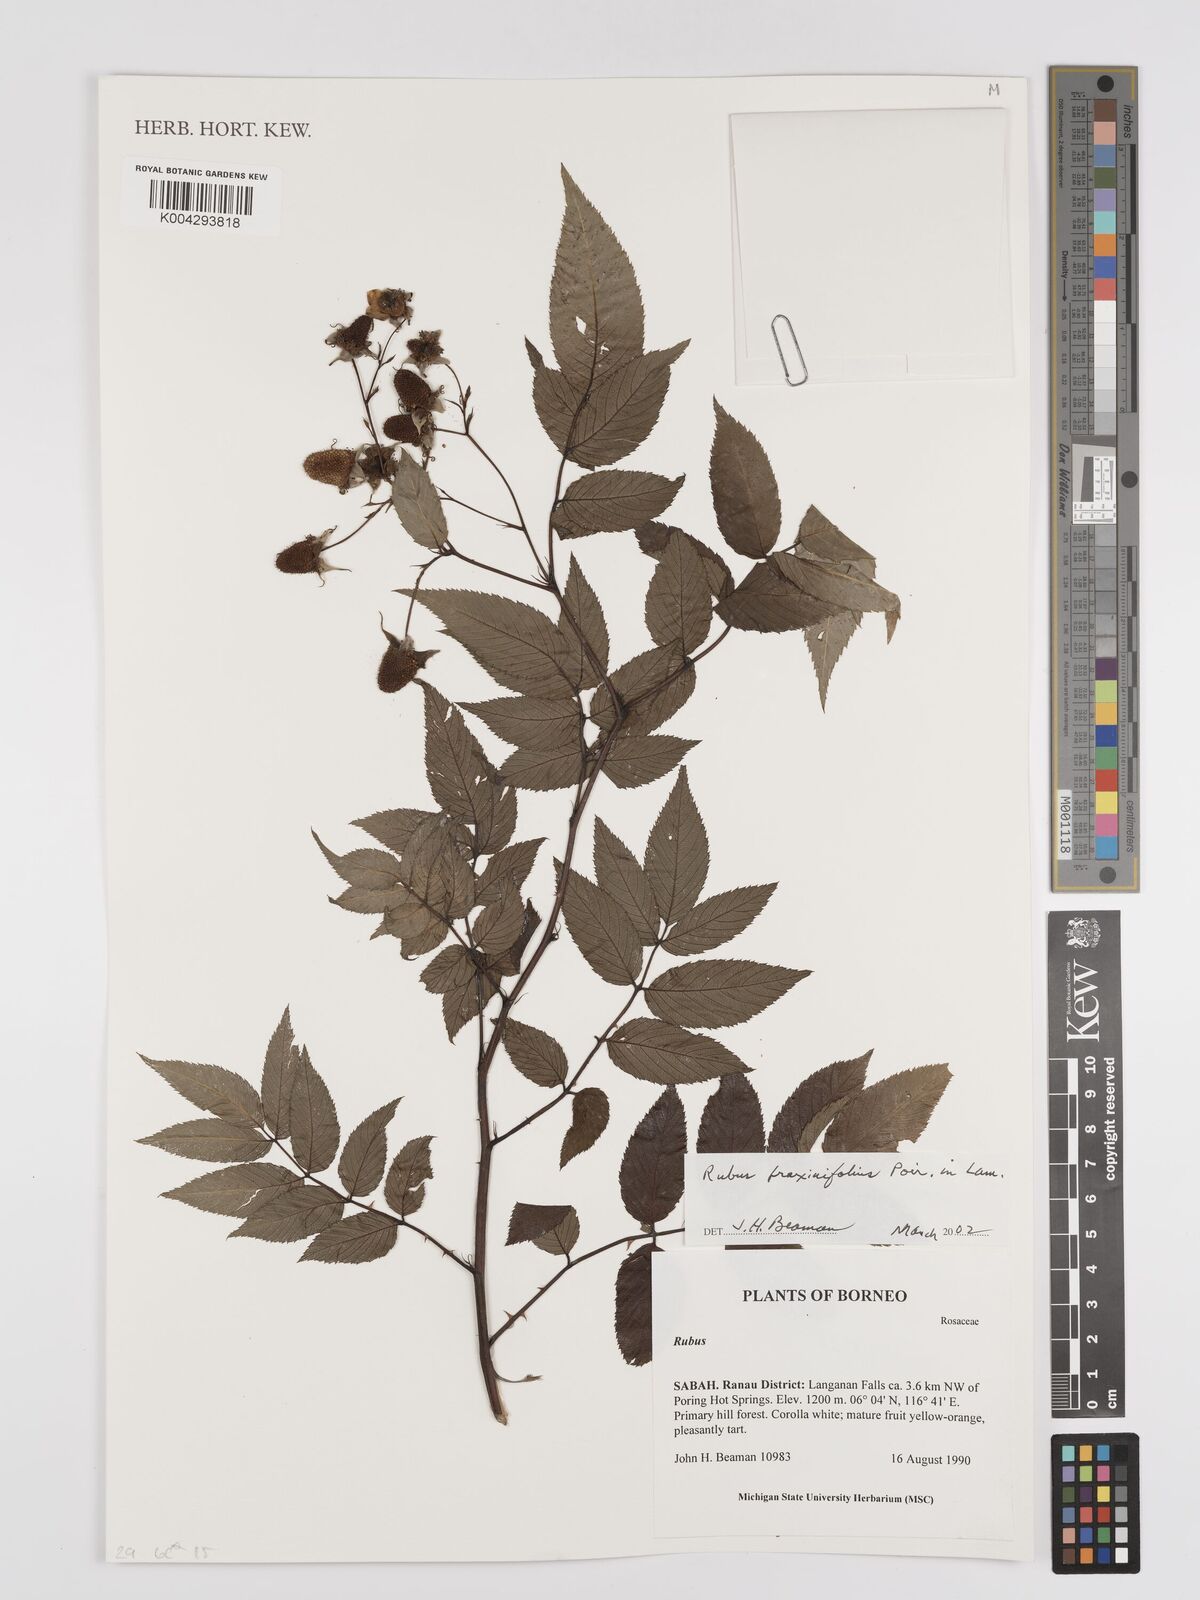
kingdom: Plantae
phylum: Tracheophyta
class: Magnoliopsida
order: Rosales
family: Rosaceae
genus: Rubus
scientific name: Rubus fraxinifolius
